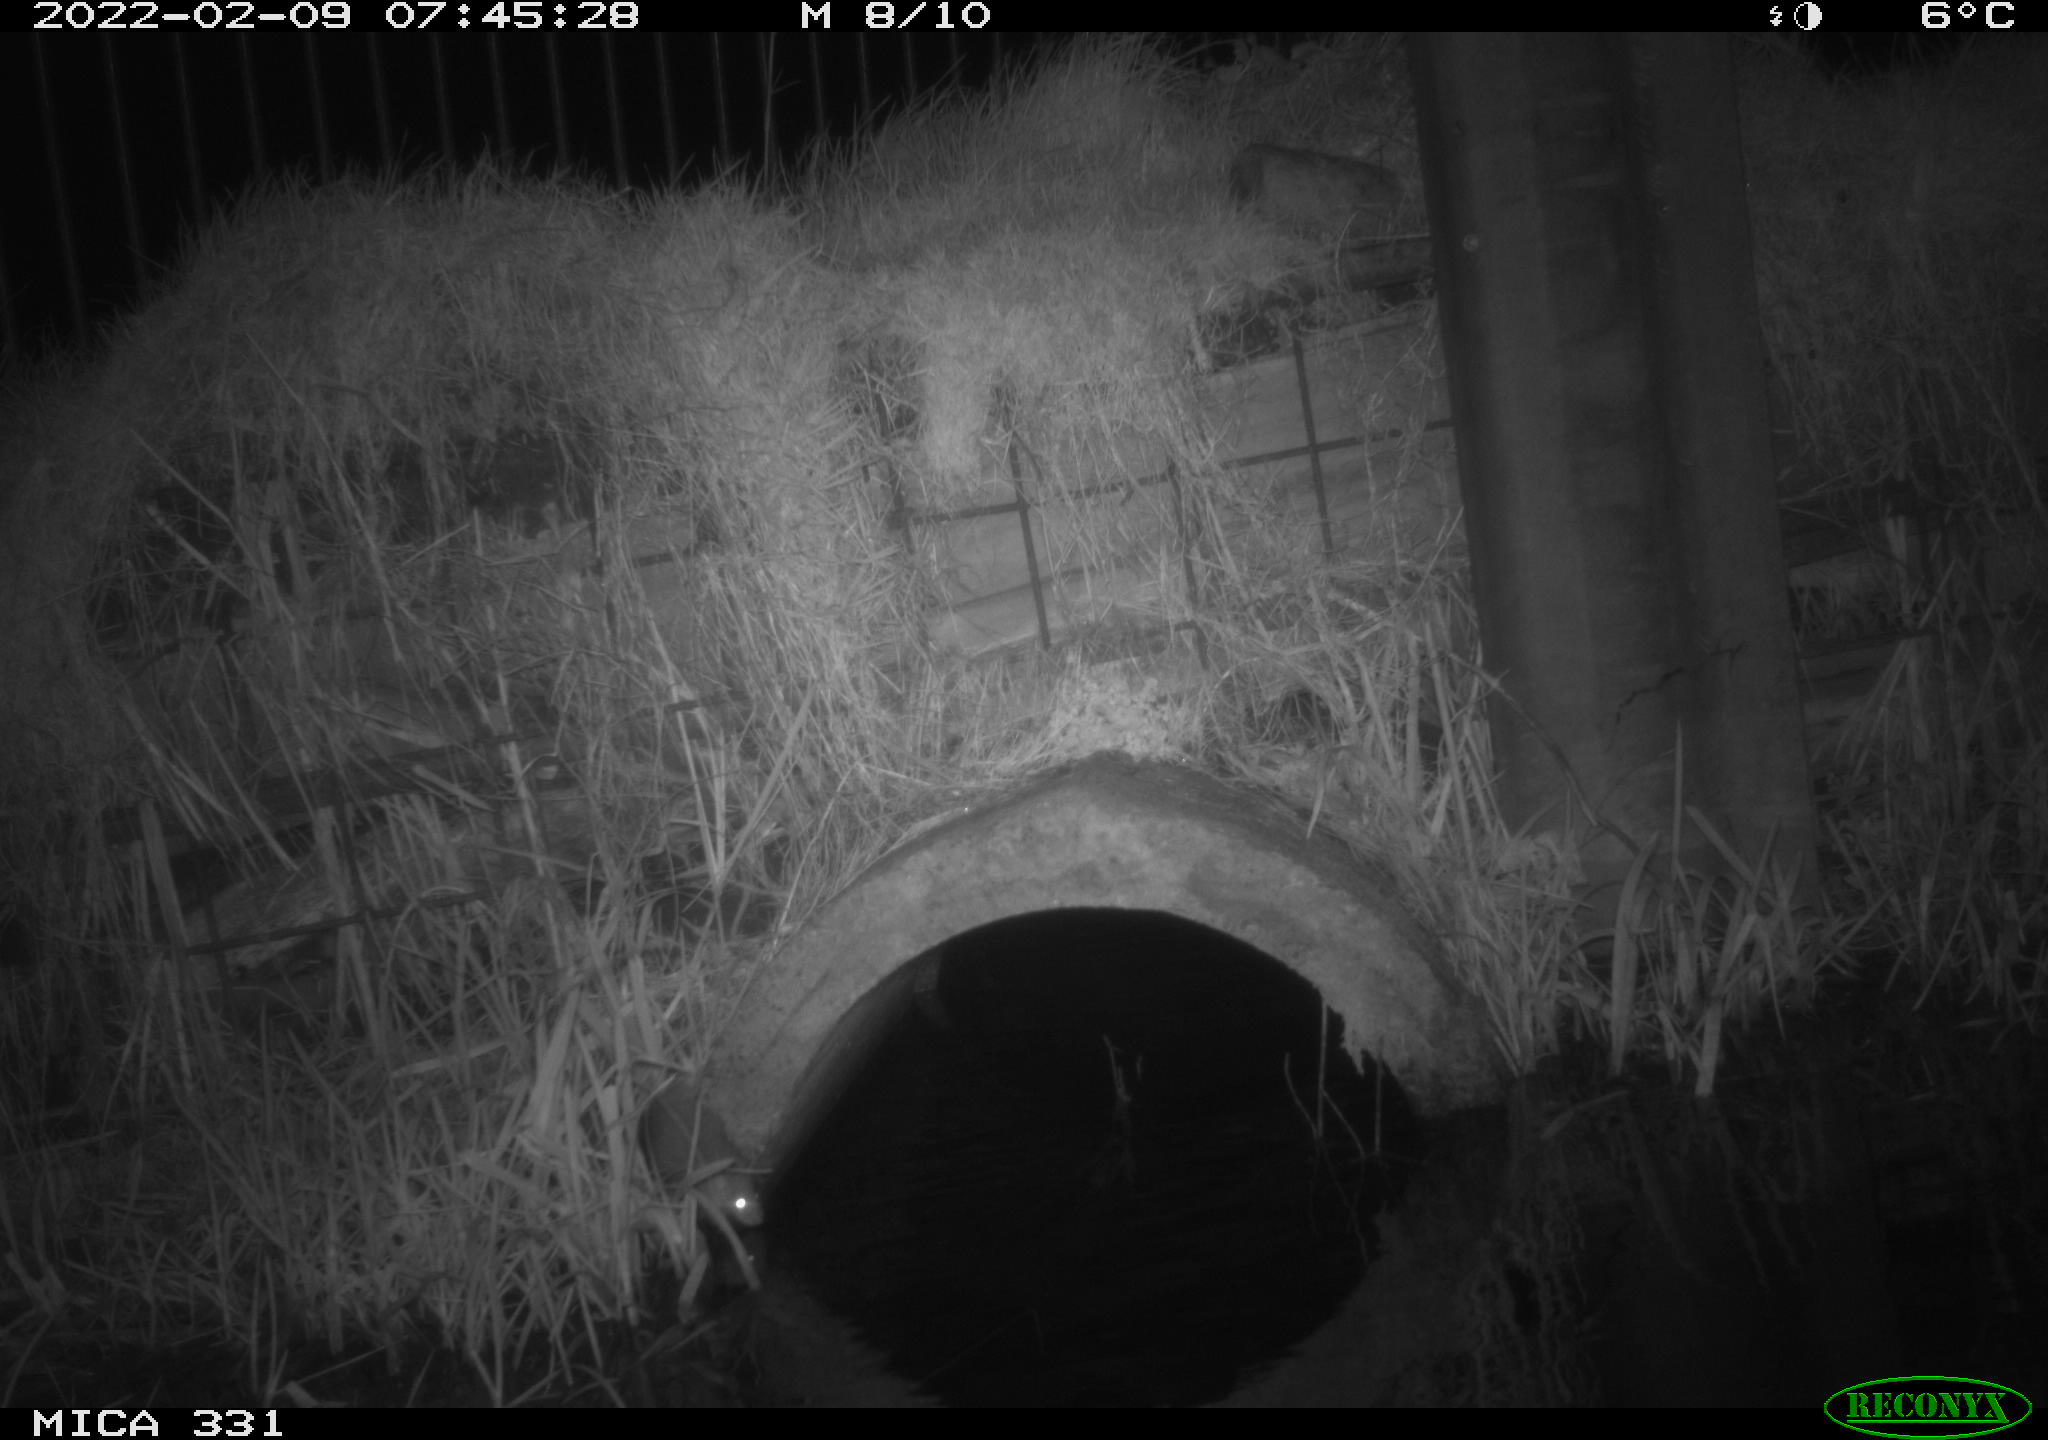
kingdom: Animalia
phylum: Chordata
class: Mammalia
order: Rodentia
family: Muridae
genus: Rattus
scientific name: Rattus norvegicus
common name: Brown rat
